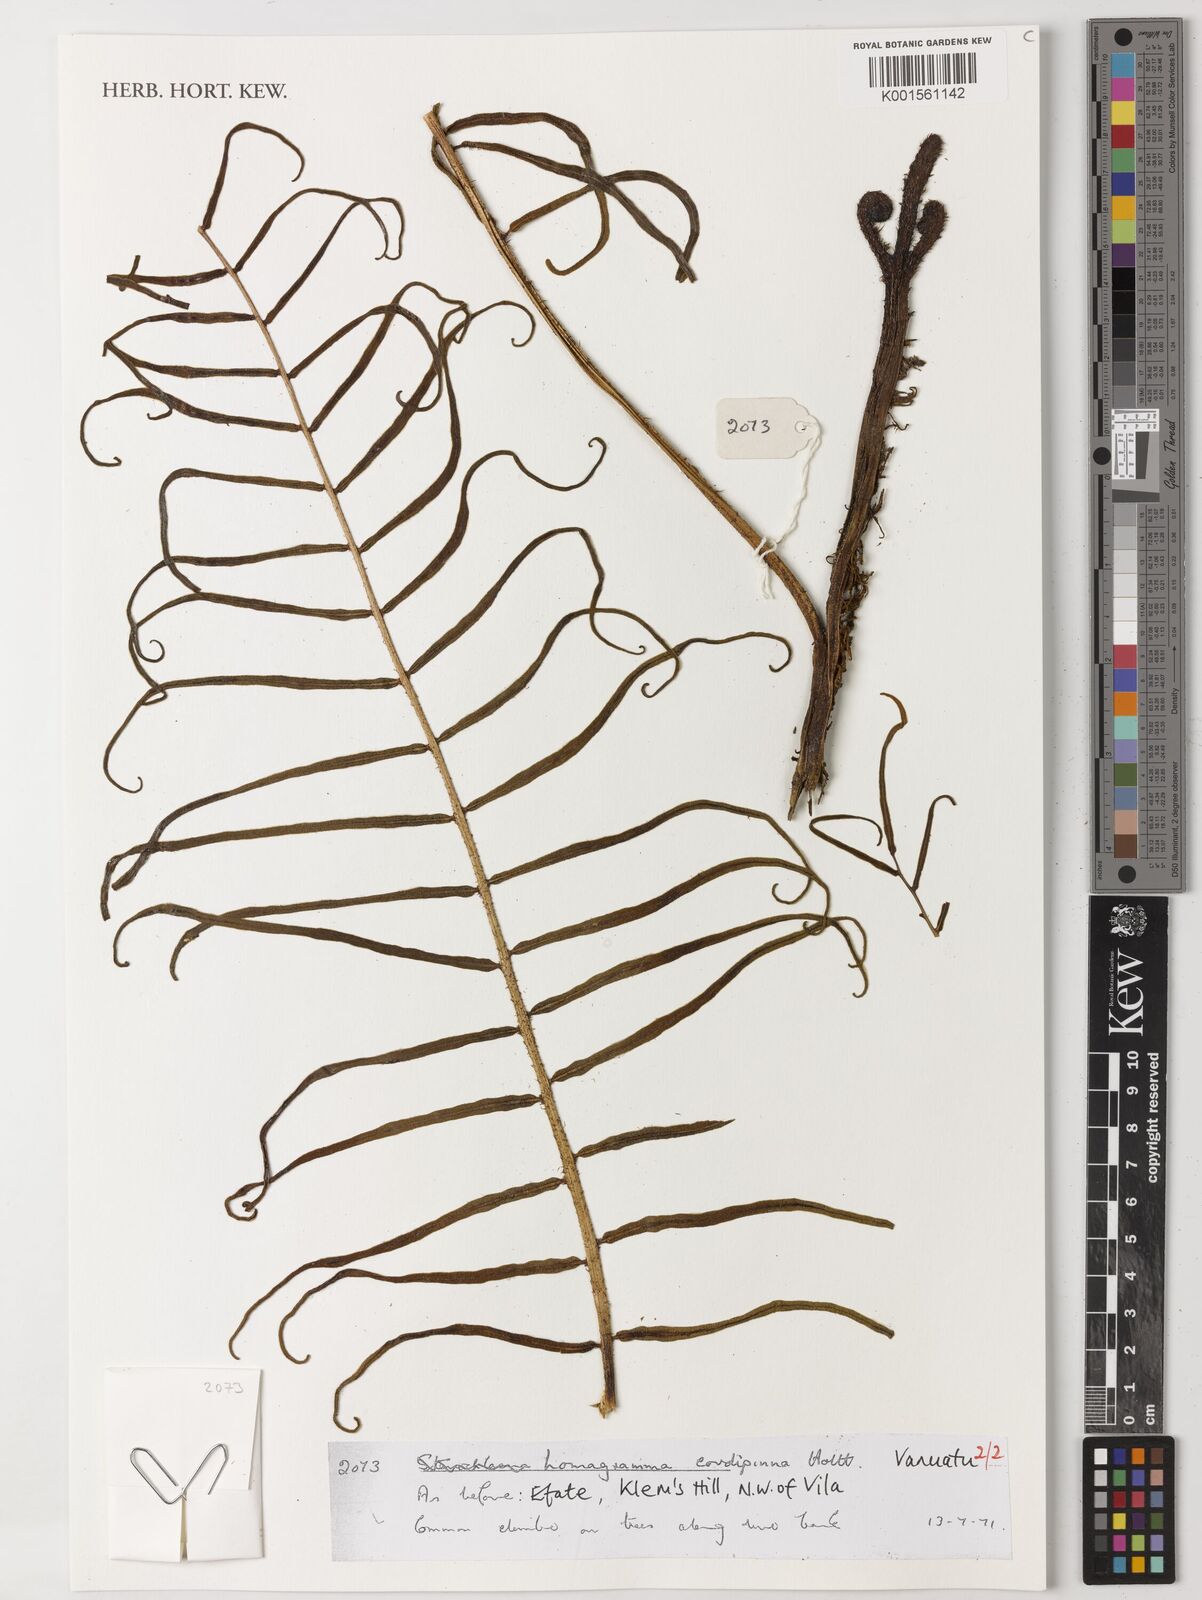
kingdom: Plantae
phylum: Tracheophyta
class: Polypodiopsida
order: Polypodiales
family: Dryopteridaceae
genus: Lomagramma
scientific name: Lomagramma cordipinna
